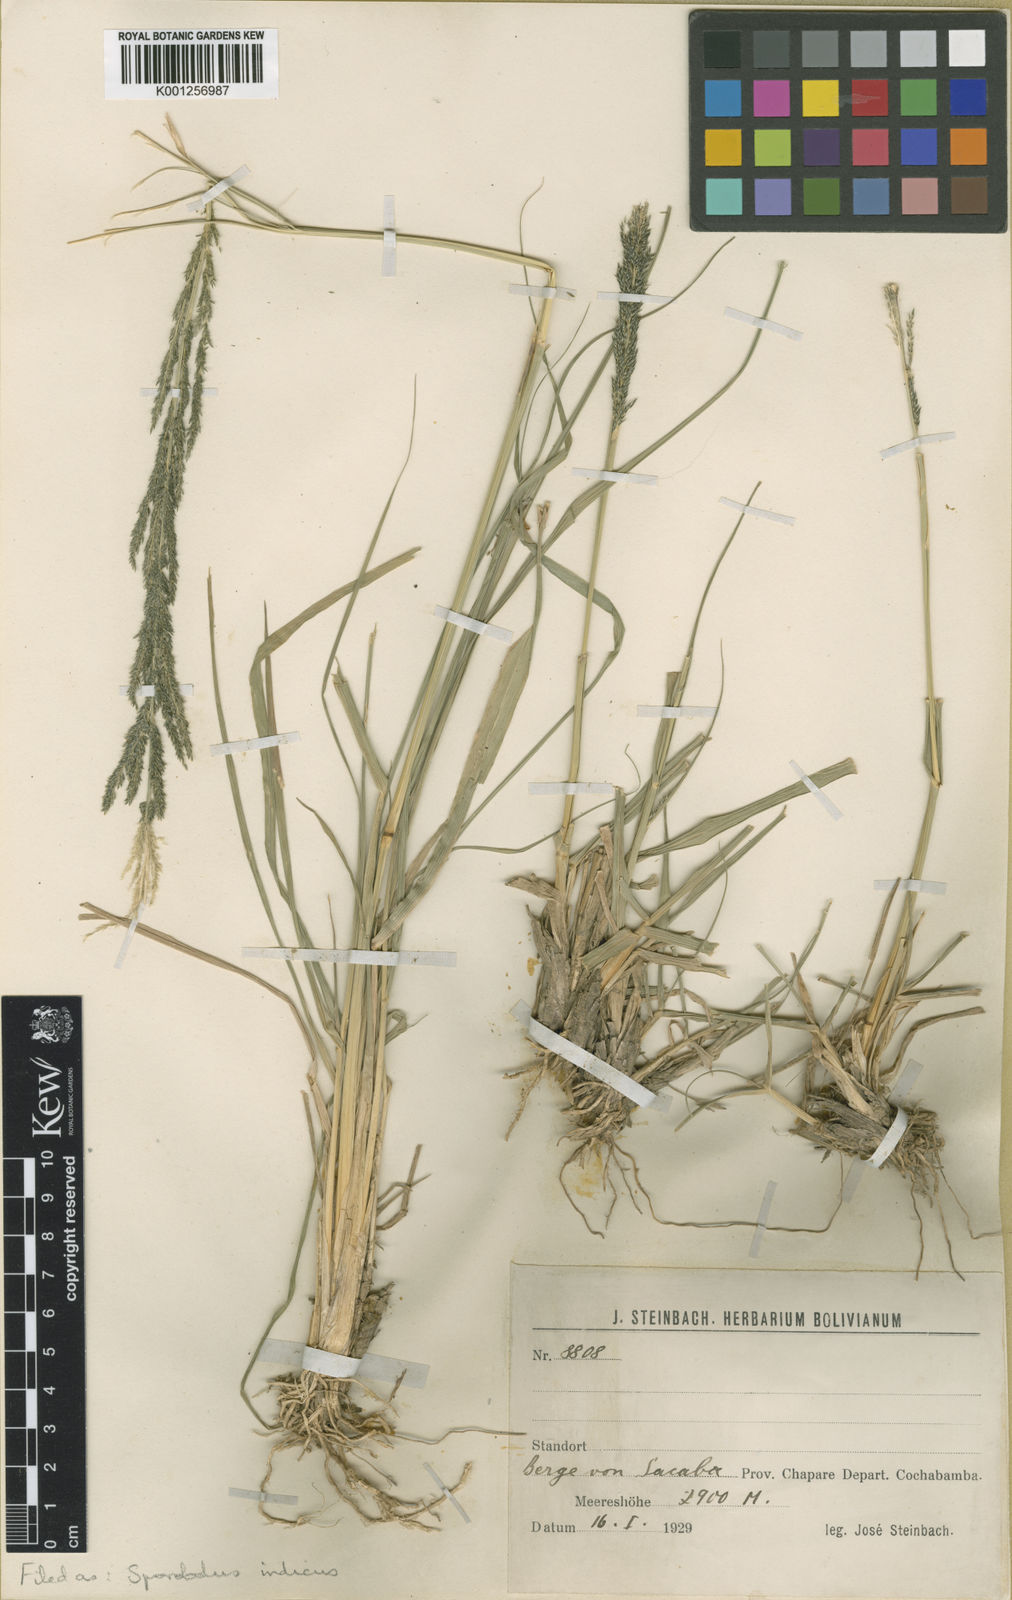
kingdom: Plantae
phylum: Tracheophyta
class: Liliopsida
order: Poales
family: Poaceae
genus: Sporobolus
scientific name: Sporobolus indicus
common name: Smut grass
